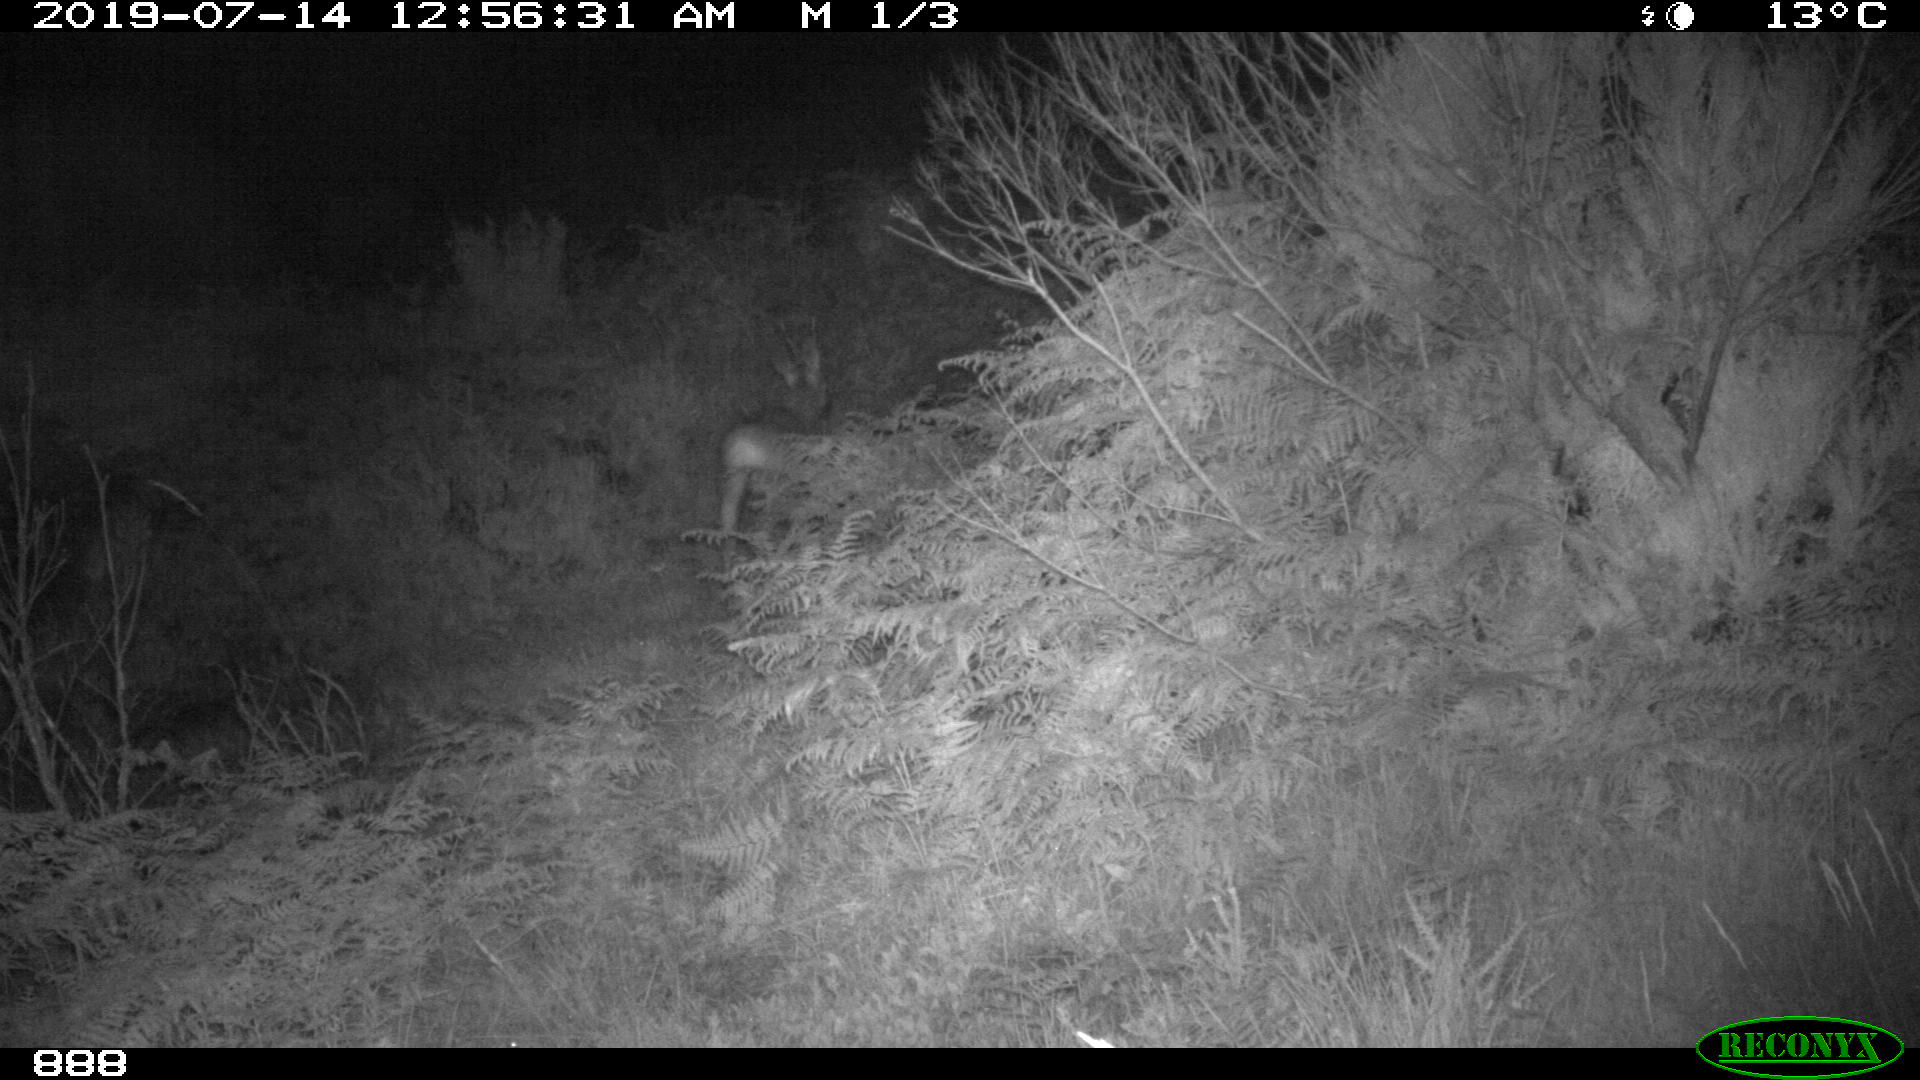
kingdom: Animalia
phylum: Chordata
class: Mammalia
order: Artiodactyla
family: Cervidae
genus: Capreolus
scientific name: Capreolus capreolus
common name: Western roe deer
